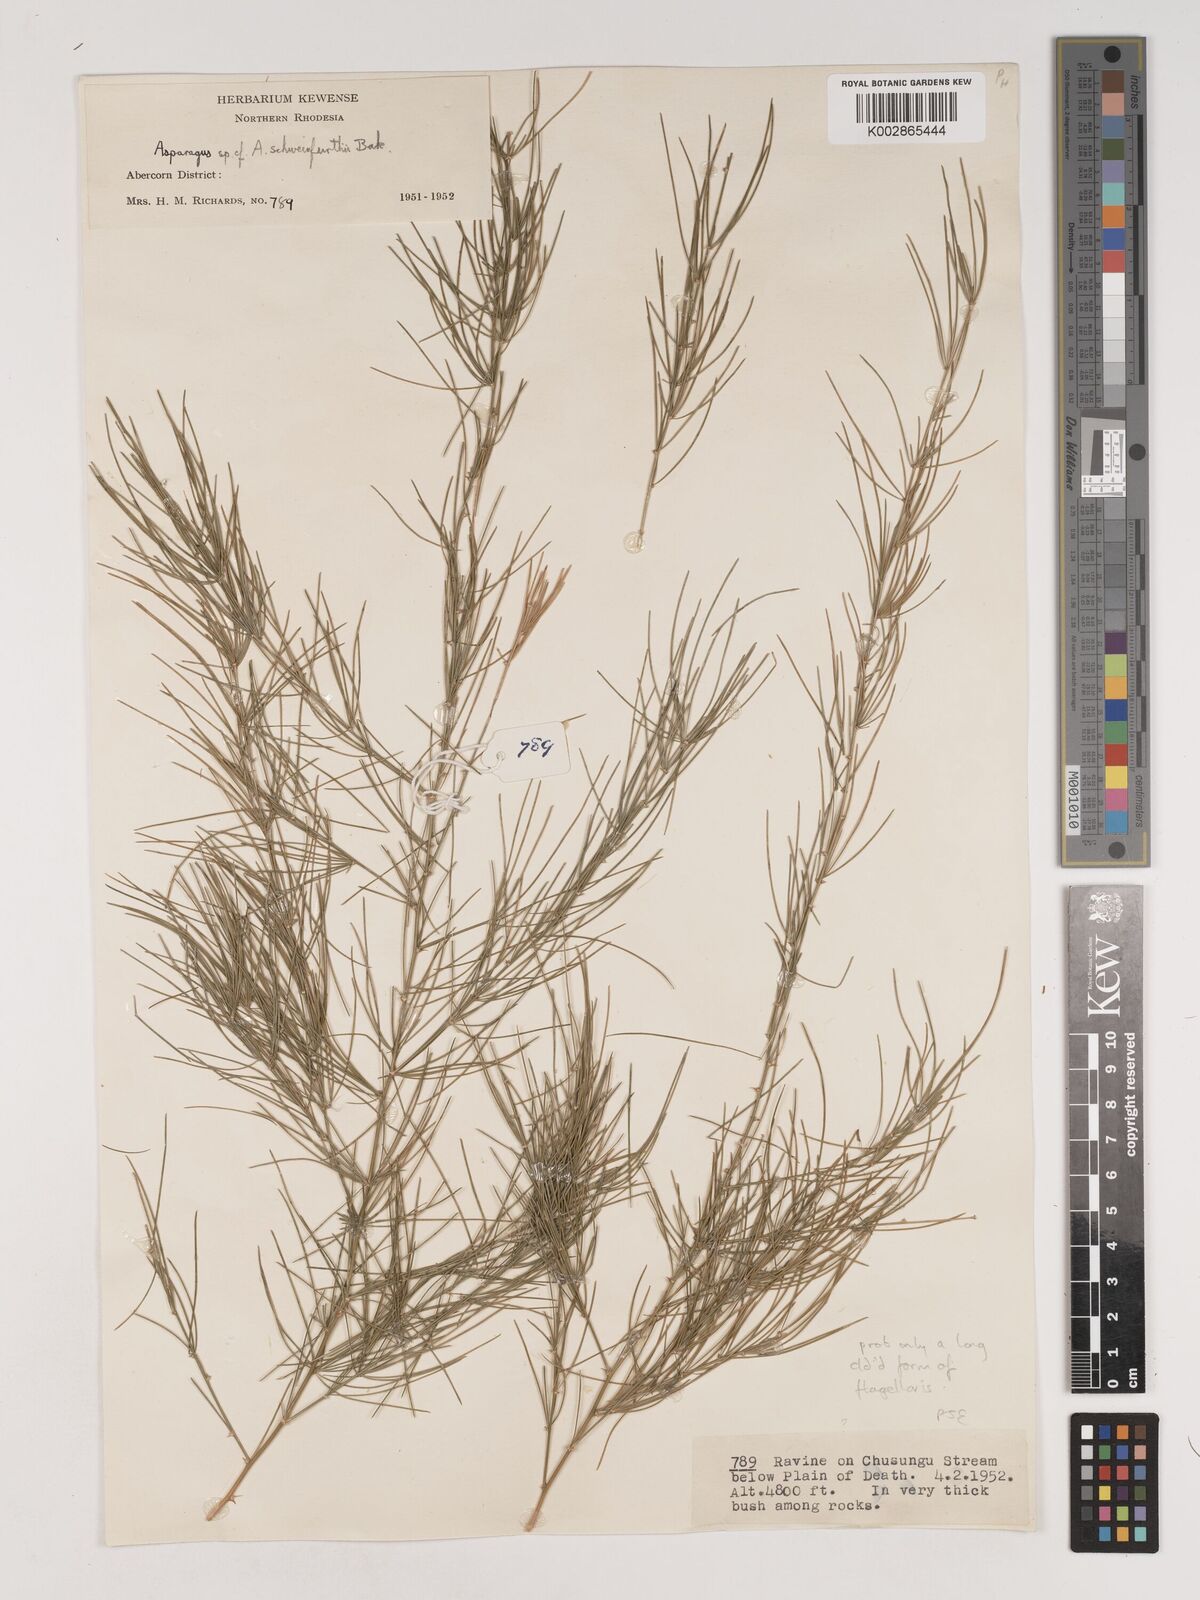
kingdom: Plantae
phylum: Tracheophyta
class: Liliopsida
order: Asparagales
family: Asparagaceae
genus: Asparagus
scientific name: Asparagus flagellaris
